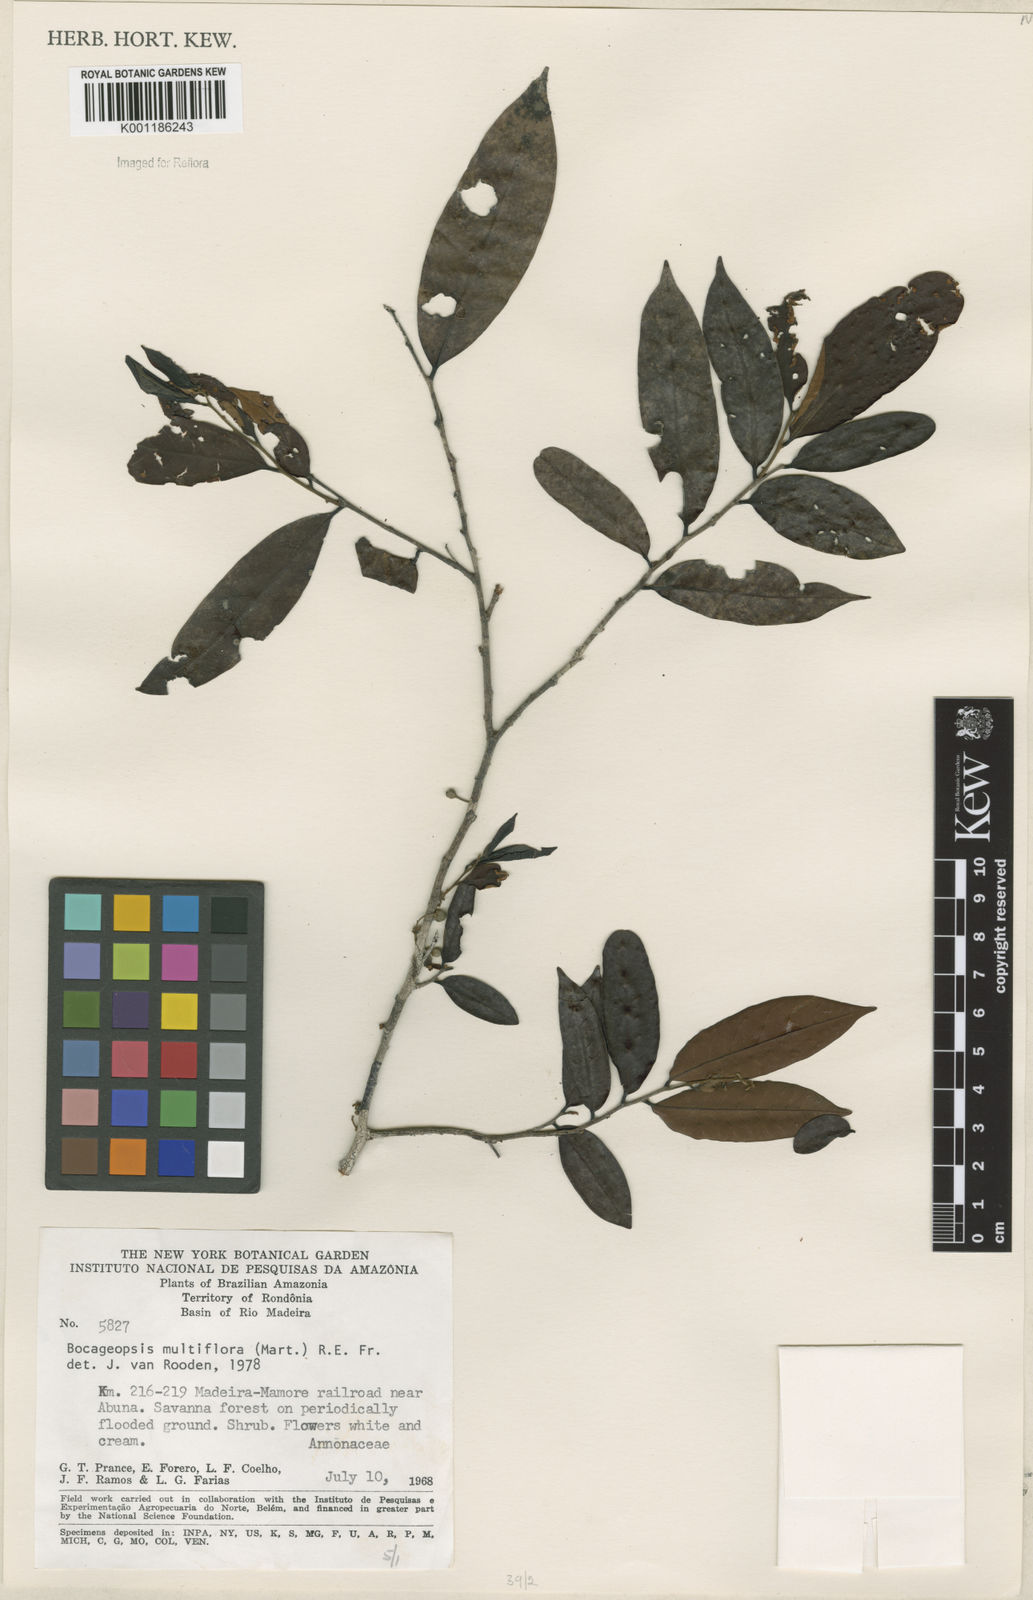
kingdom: Plantae
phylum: Tracheophyta
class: Magnoliopsida
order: Magnoliales
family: Annonaceae
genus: Bocageopsis
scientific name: Bocageopsis multiflora
